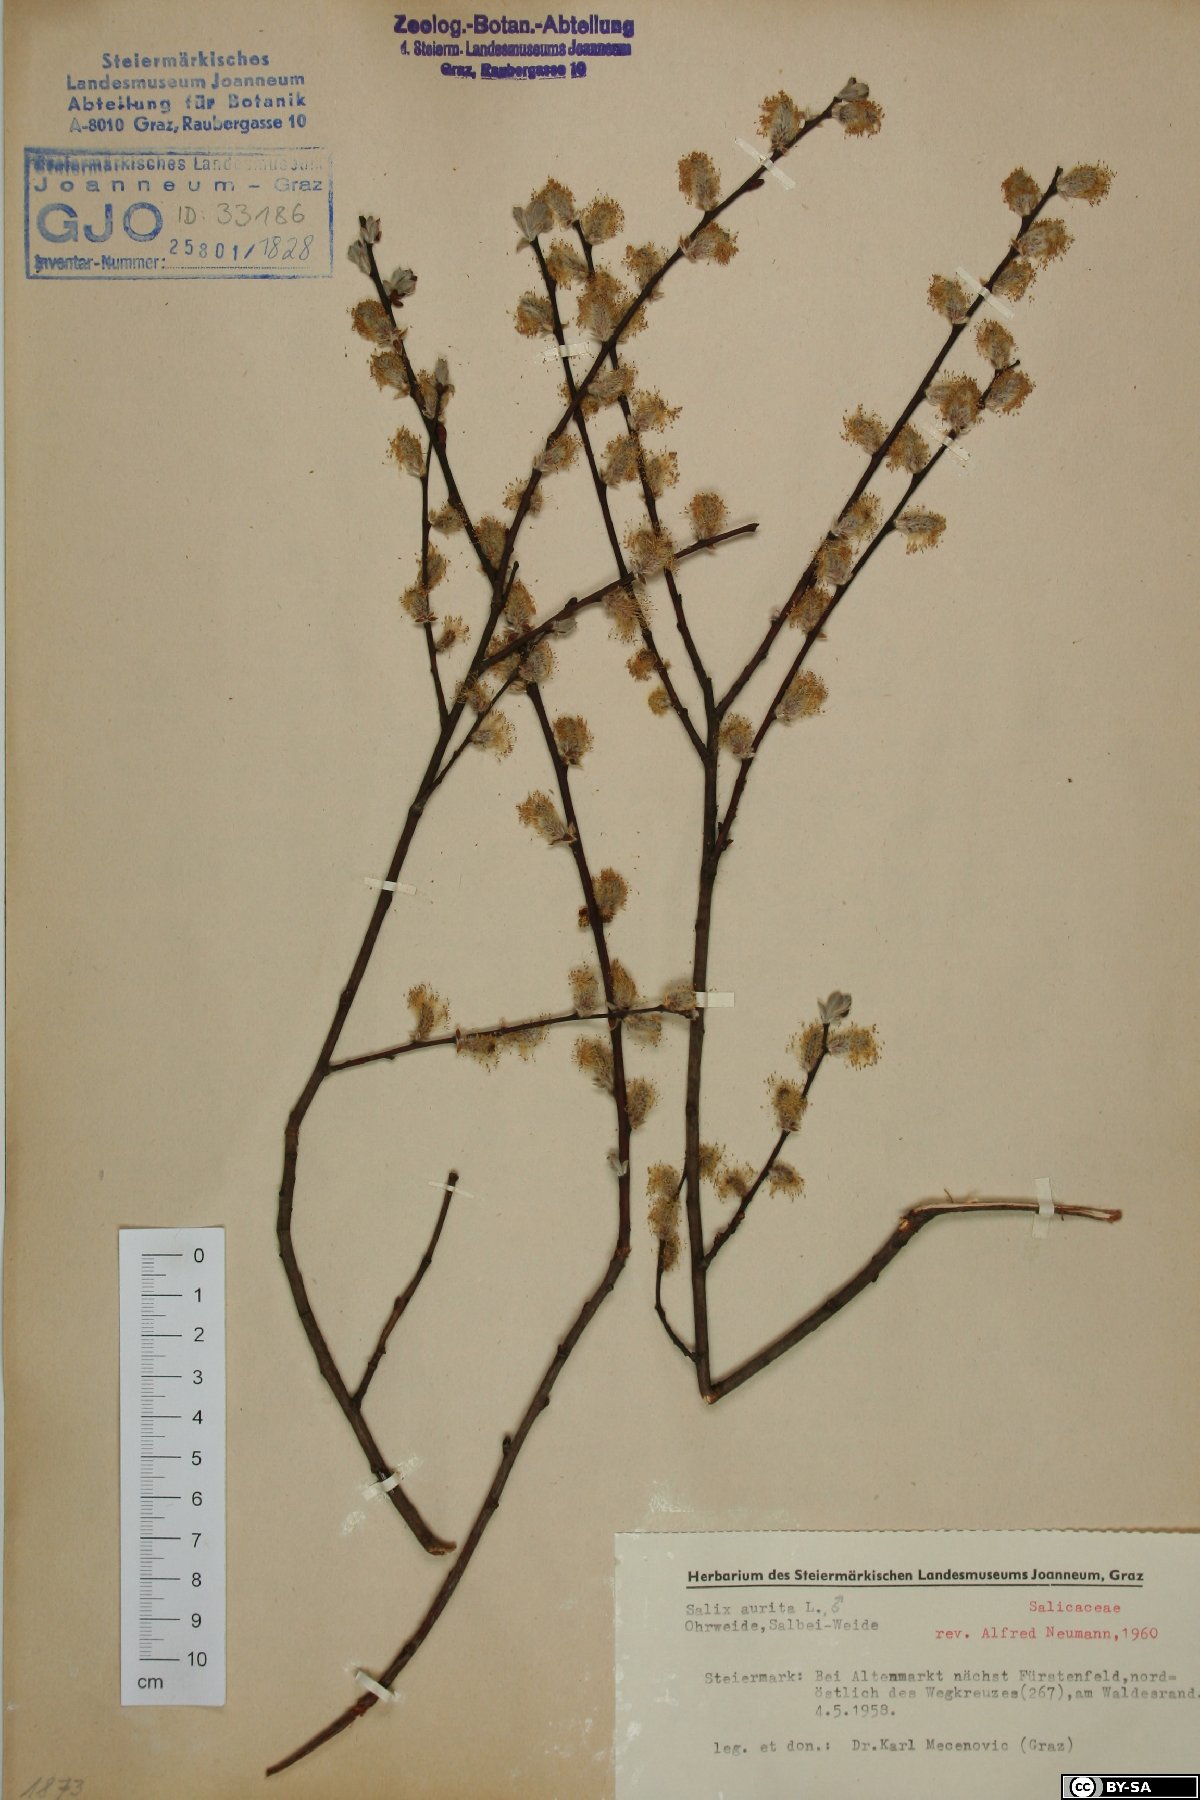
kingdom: Plantae
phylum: Tracheophyta
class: Magnoliopsida
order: Malpighiales
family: Salicaceae
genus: Salix
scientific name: Salix aurita
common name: Eared willow
